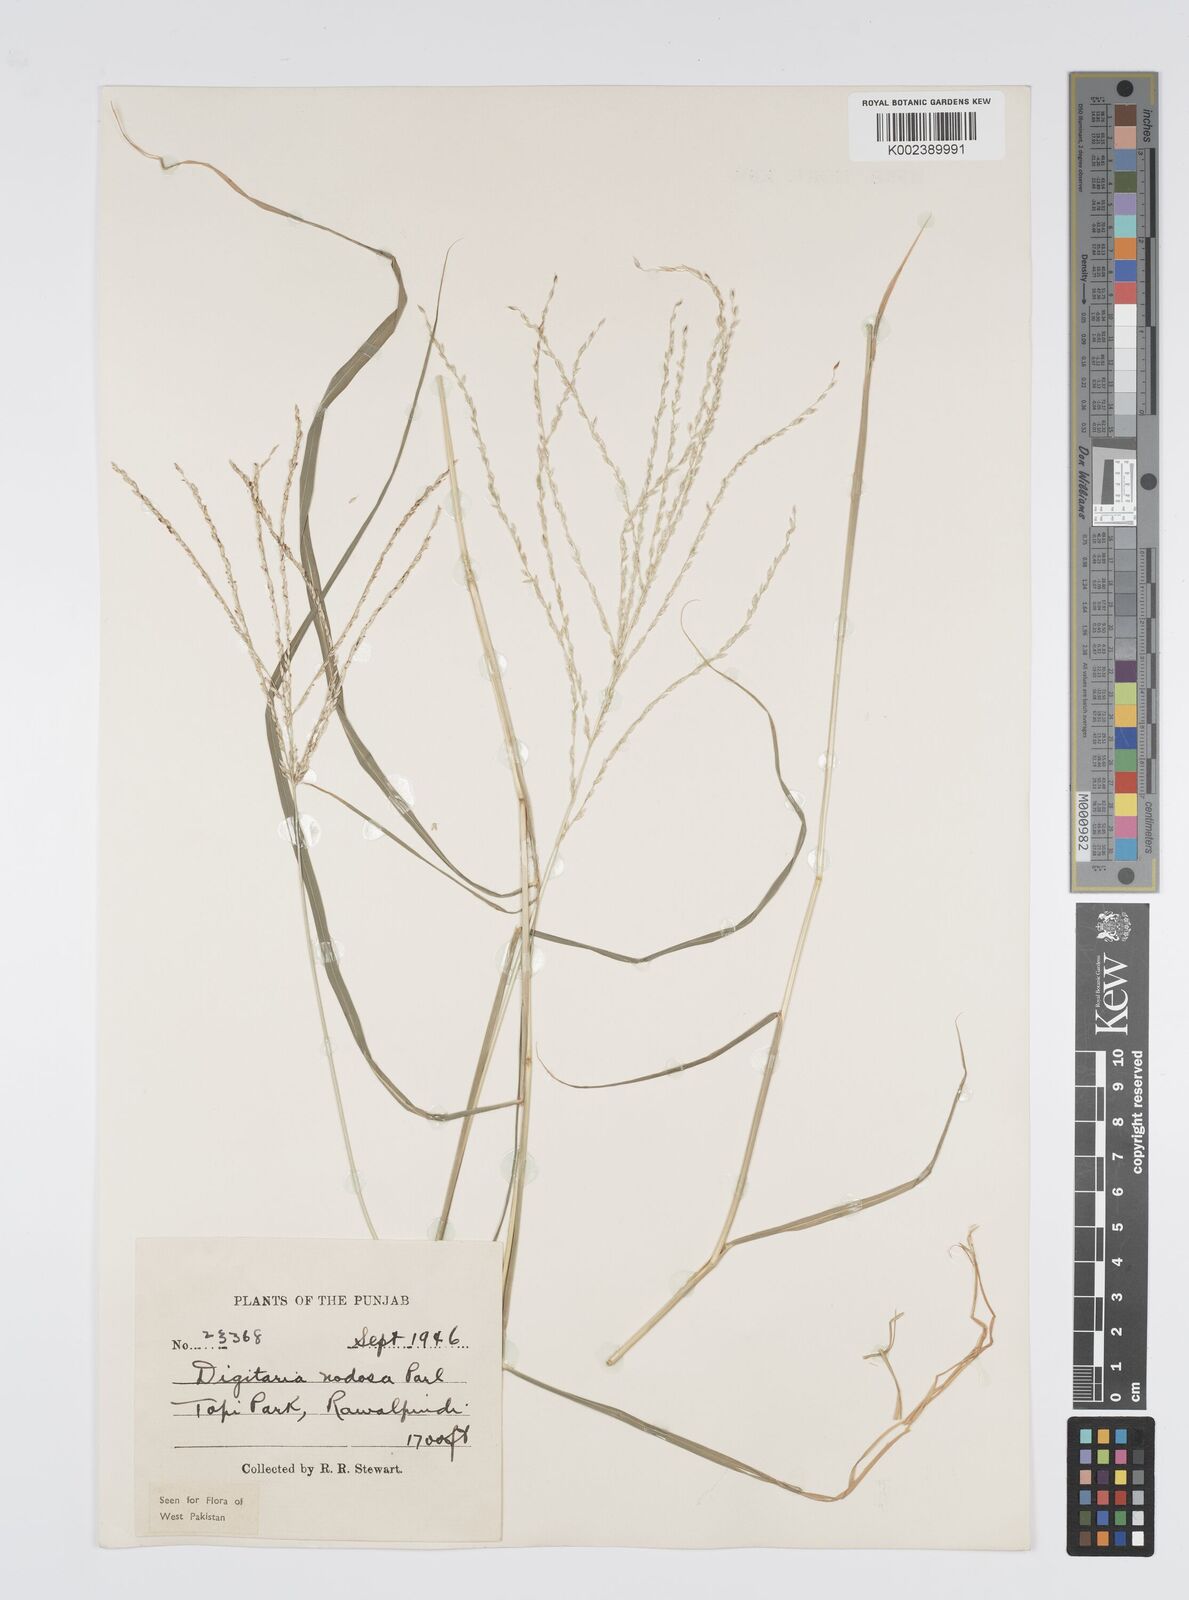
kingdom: Plantae
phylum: Tracheophyta
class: Liliopsida
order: Poales
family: Poaceae
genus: Digitaria
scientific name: Digitaria nodosa
